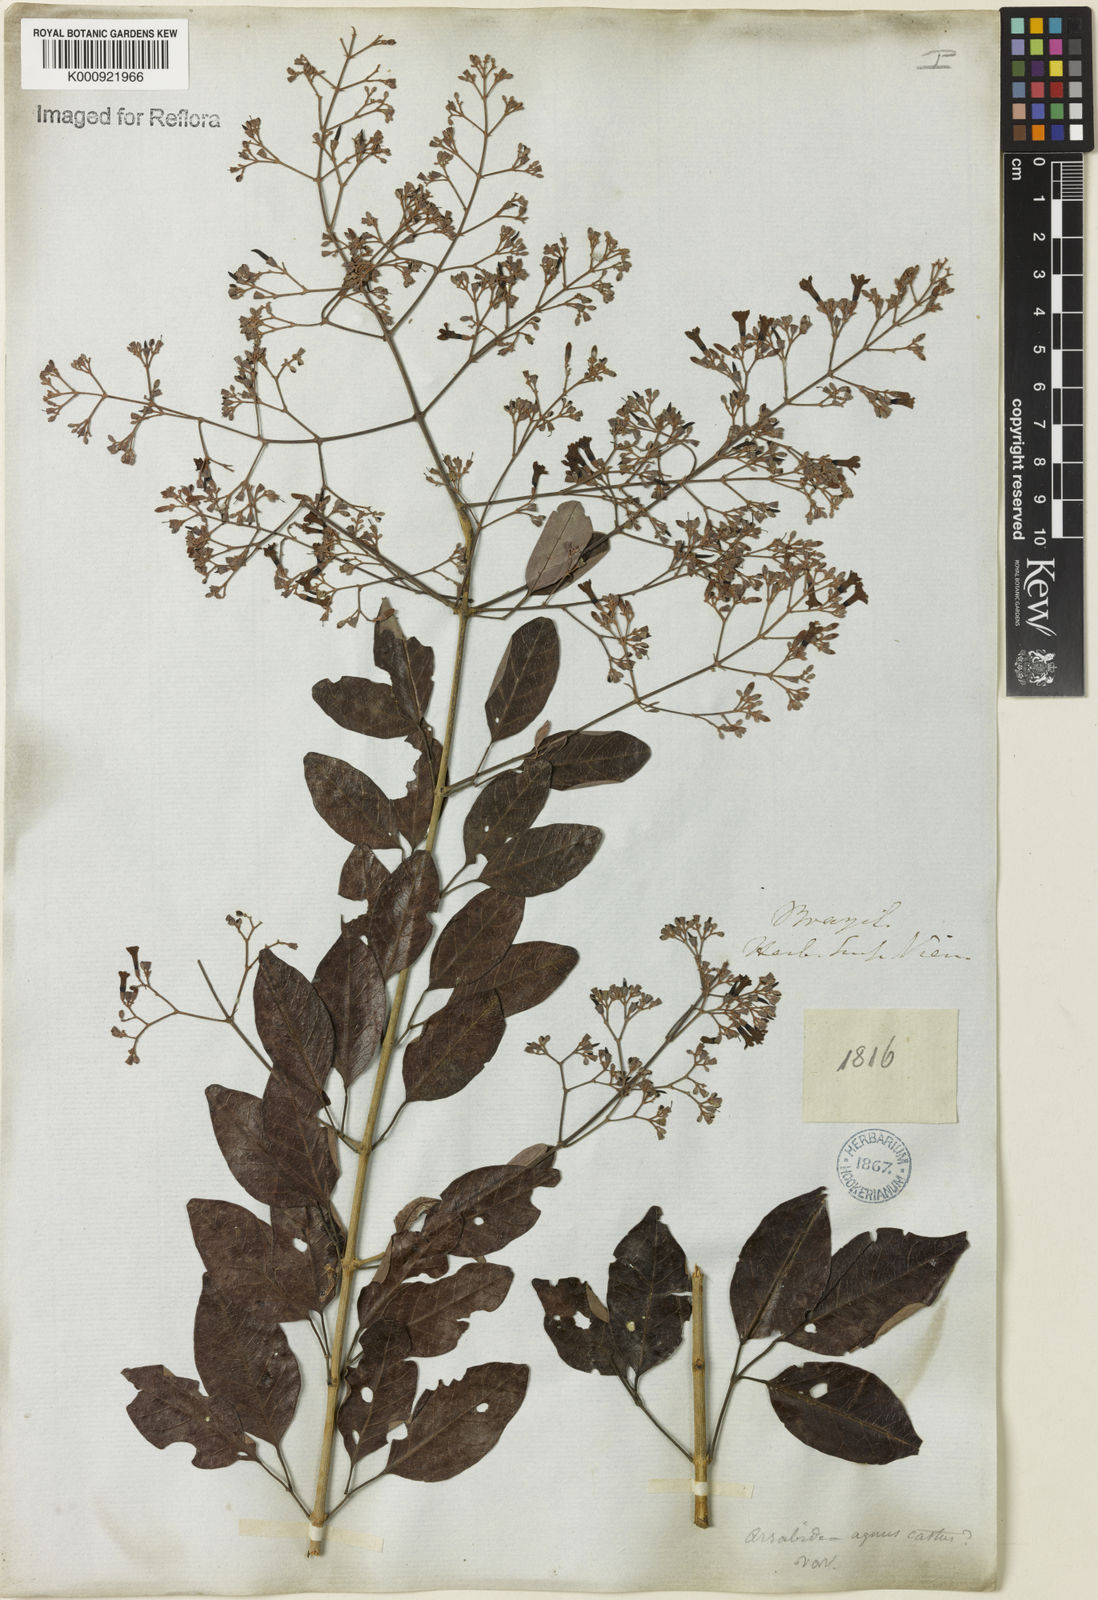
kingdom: Plantae
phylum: Tracheophyta
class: Magnoliopsida
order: Lamiales
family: Bignoniaceae
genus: Fridericia
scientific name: Fridericia rego
